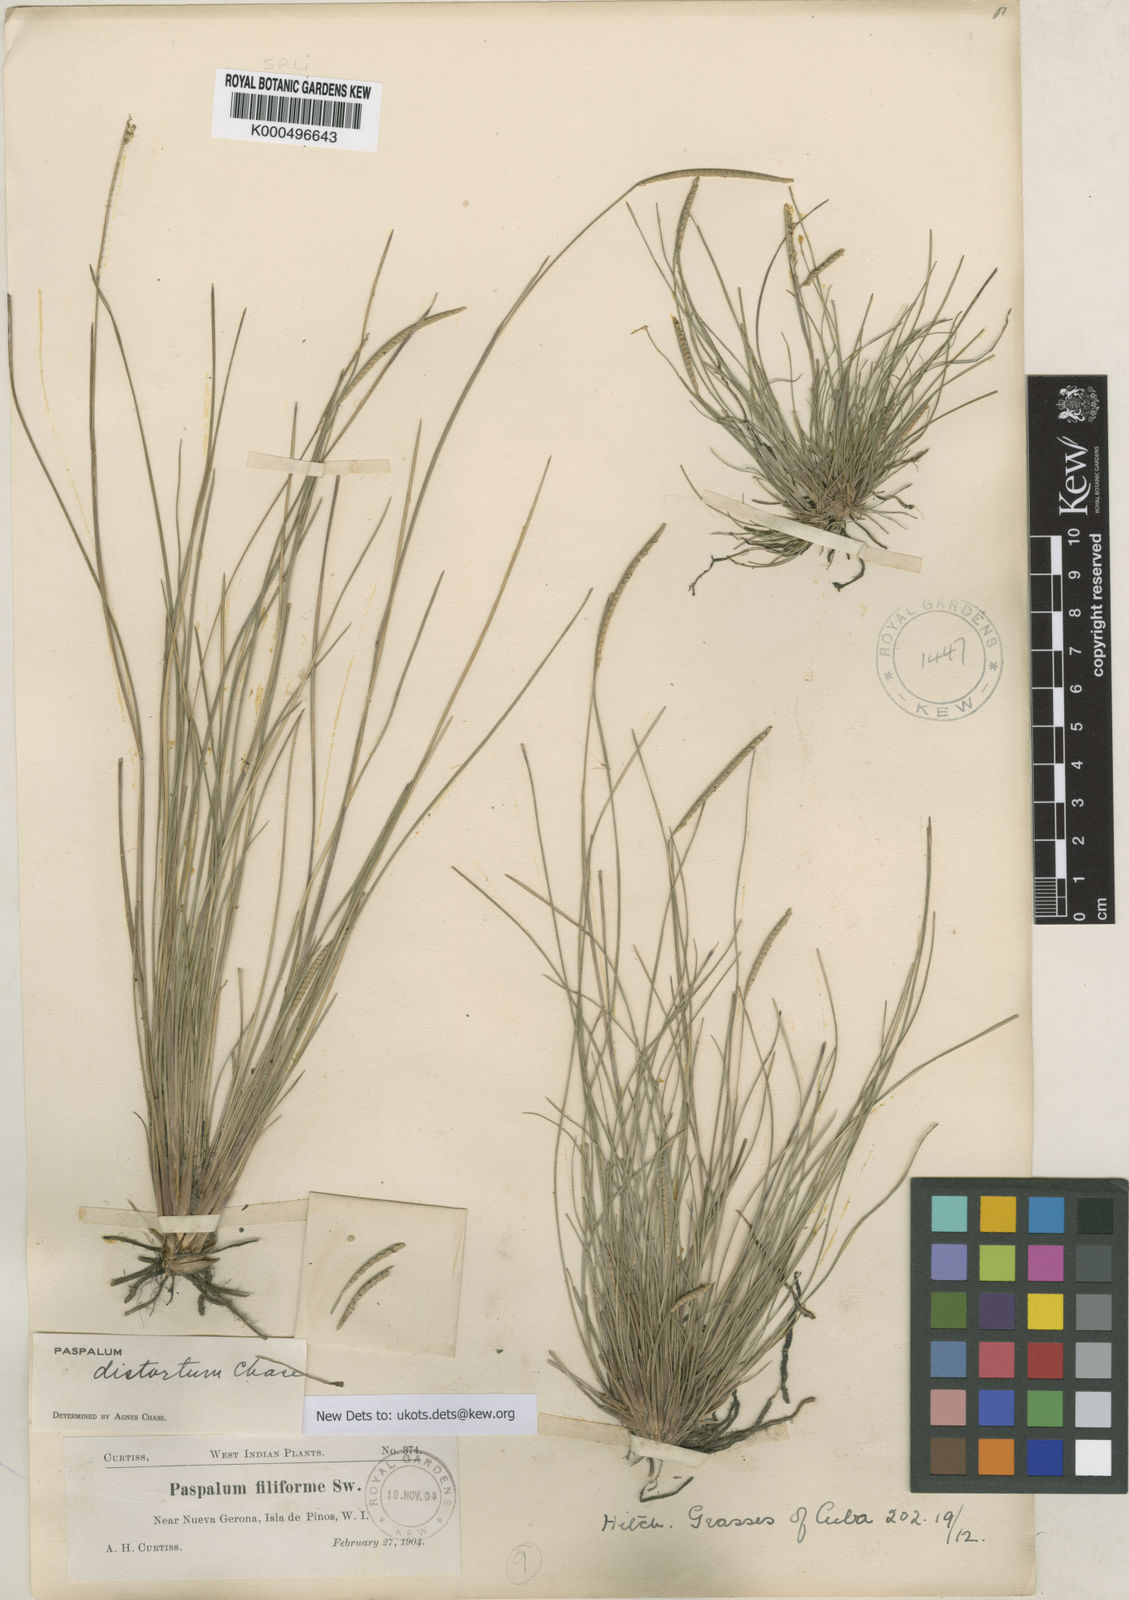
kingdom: Plantae
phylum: Tracheophyta
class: Liliopsida
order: Poales
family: Poaceae
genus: Paspalum
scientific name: Paspalum distortum
